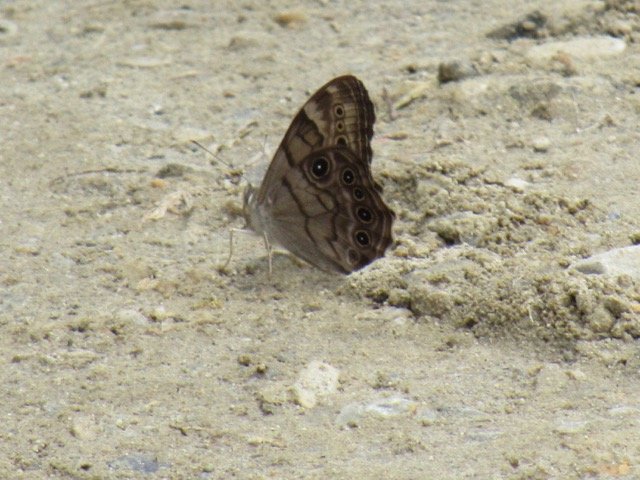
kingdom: Animalia
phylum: Arthropoda
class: Insecta
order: Lepidoptera
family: Nymphalidae
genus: Lethe
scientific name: Lethe anthedon
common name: Northern Pearly-Eye
